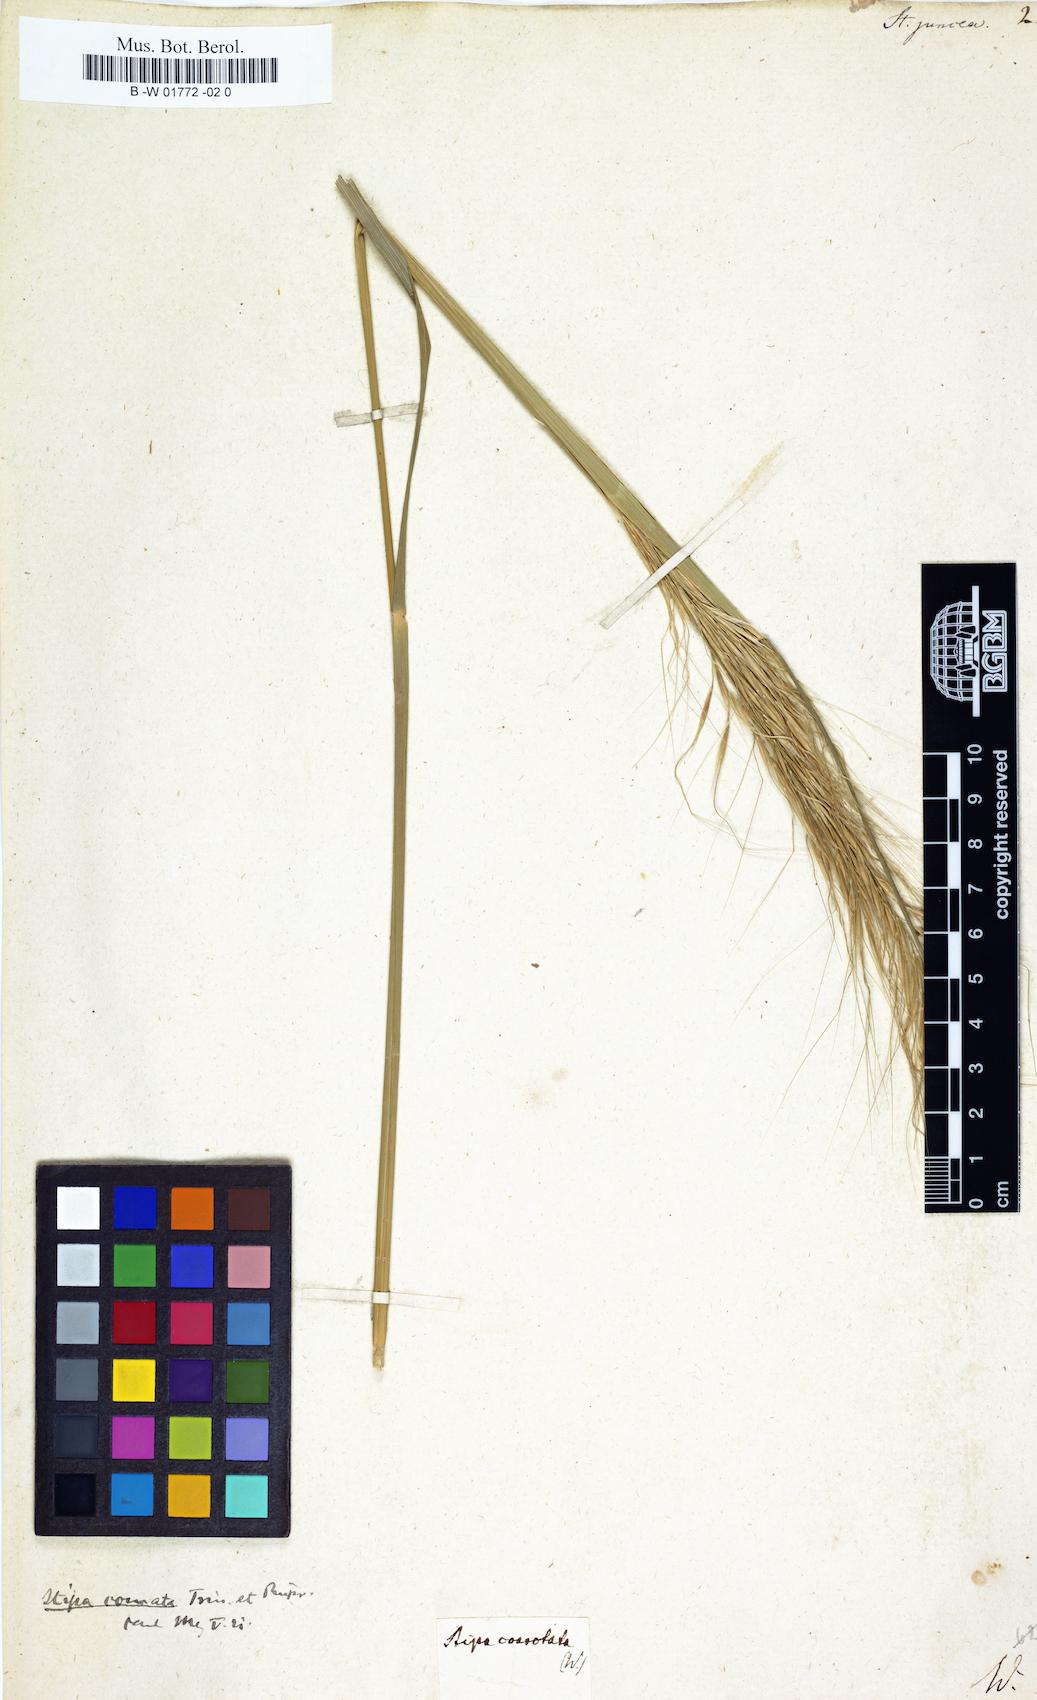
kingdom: Plantae
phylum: Tracheophyta
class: Liliopsida
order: Poales
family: Poaceae
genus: Stipa
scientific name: Stipa juncea
